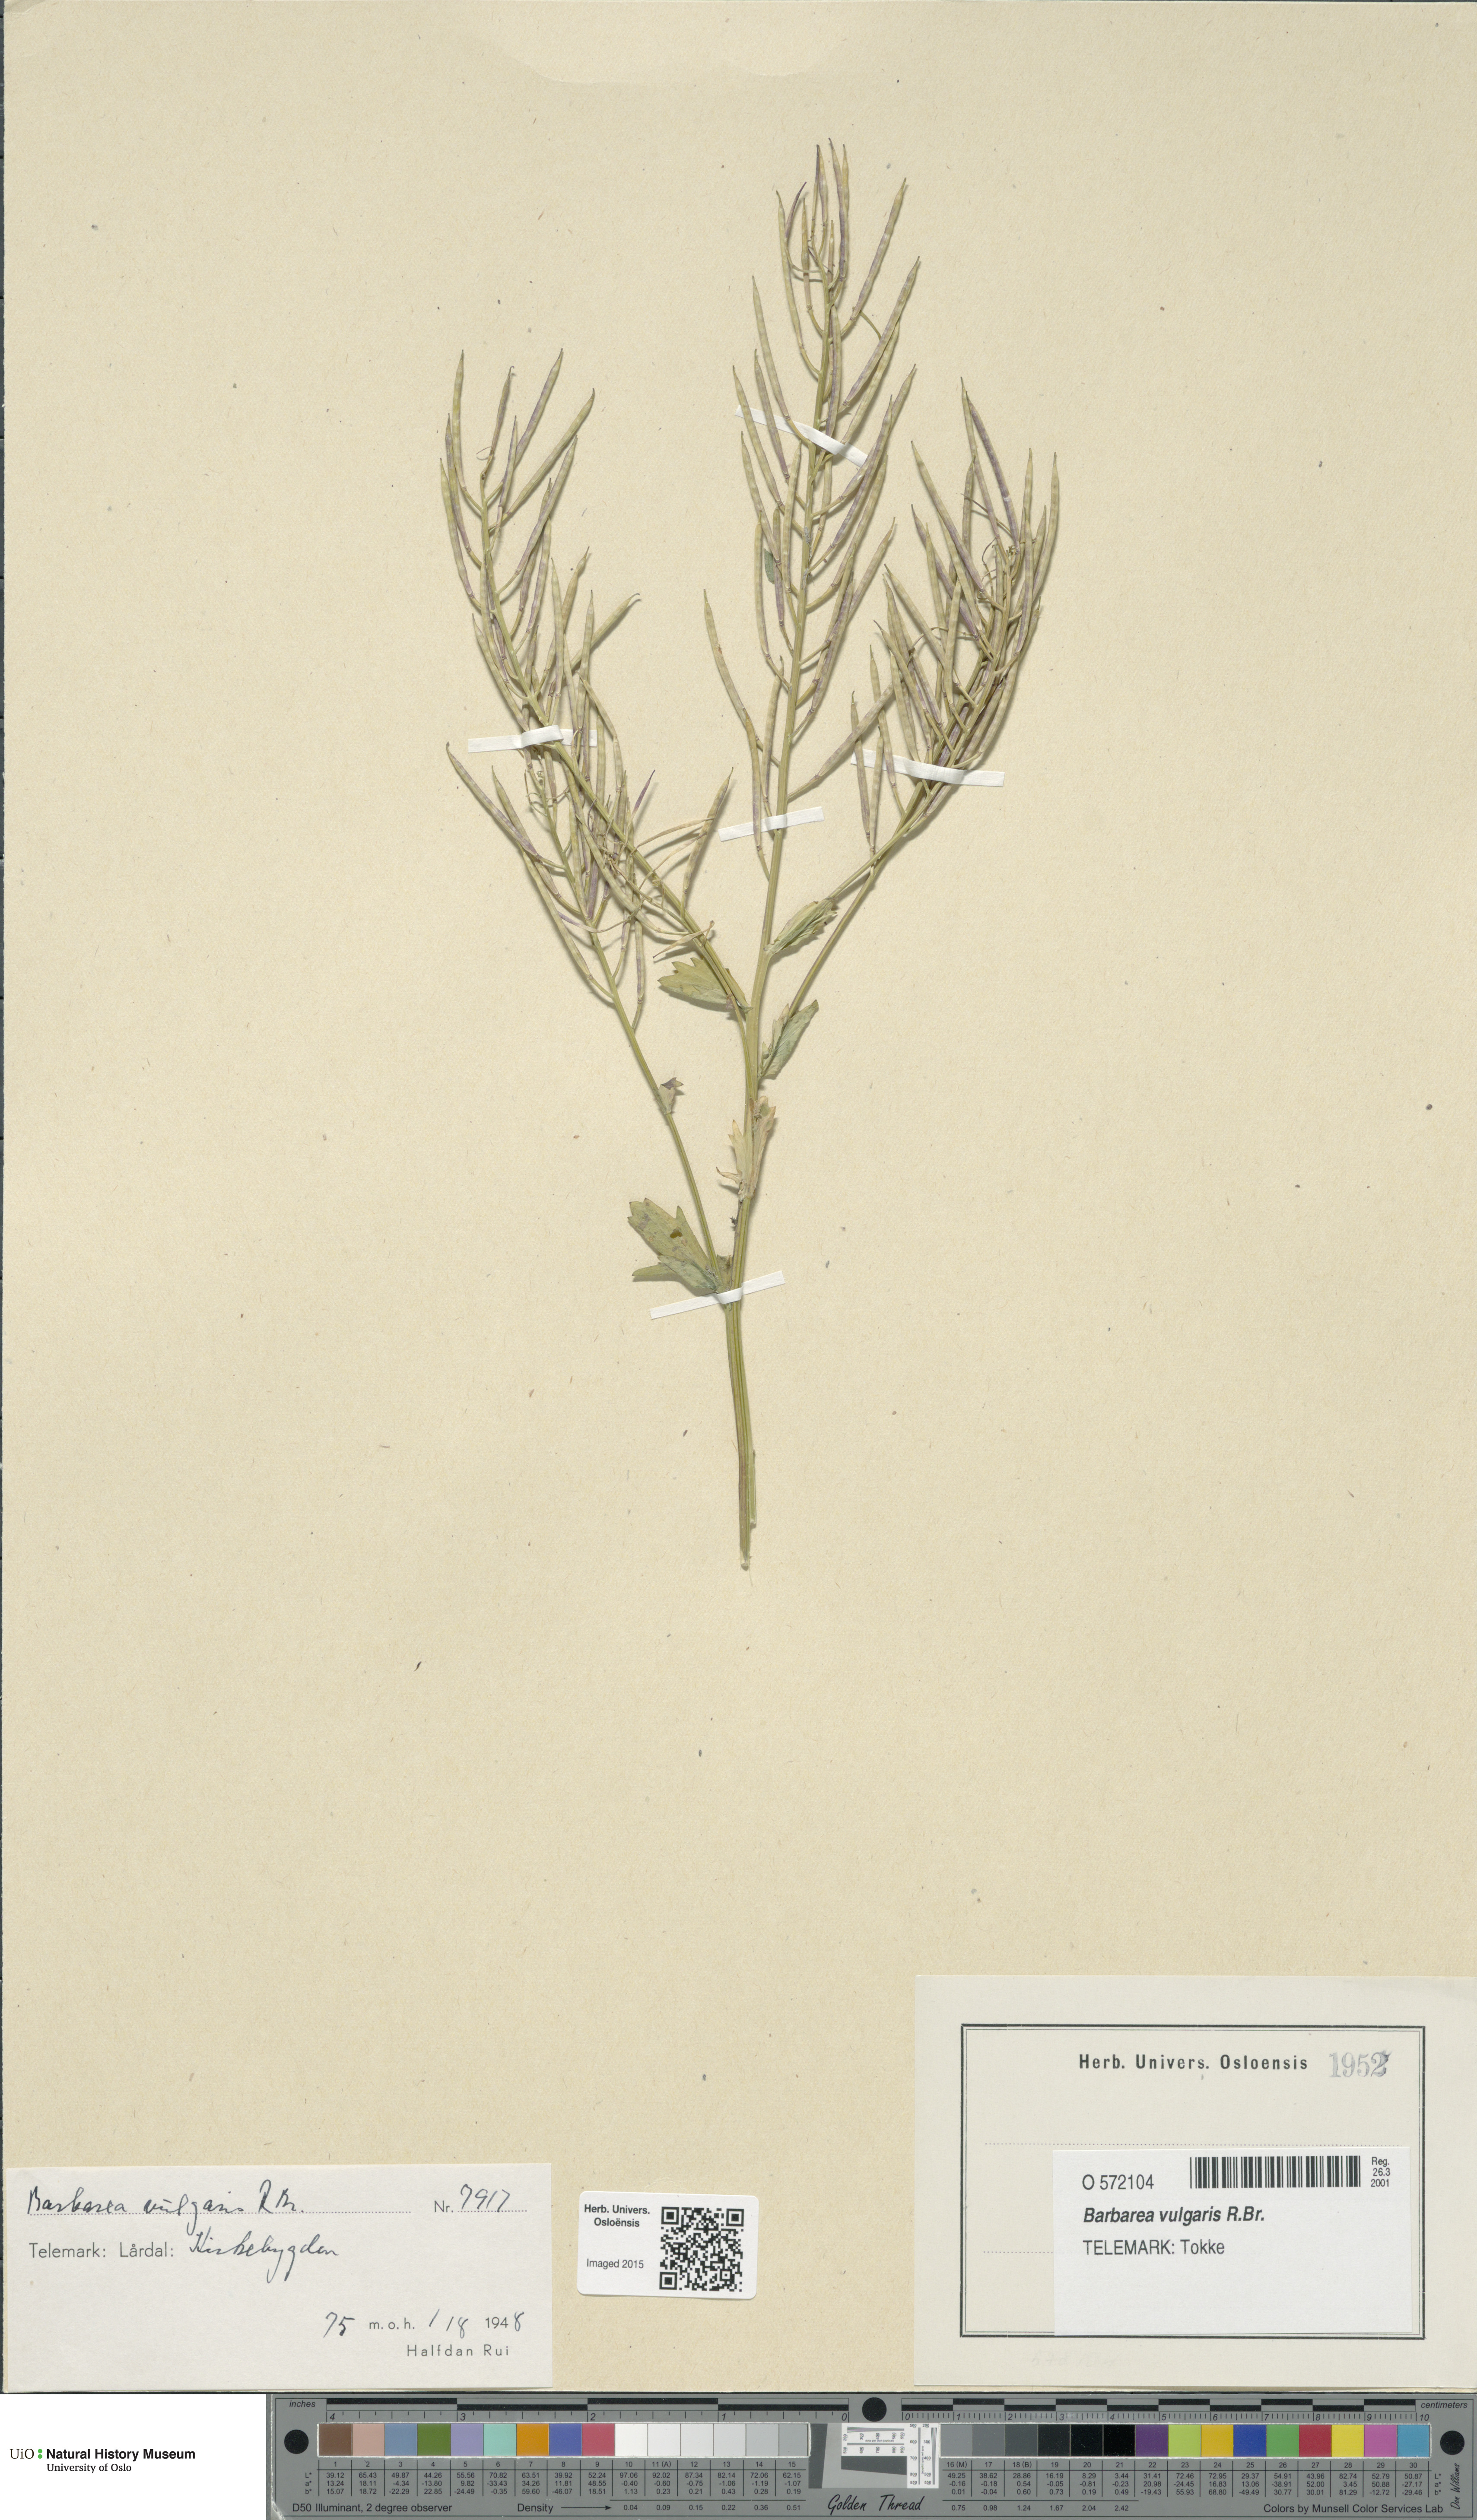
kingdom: Plantae
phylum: Tracheophyta
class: Magnoliopsida
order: Brassicales
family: Brassicaceae
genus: Barbarea
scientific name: Barbarea vulgaris
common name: Cressy-greens
